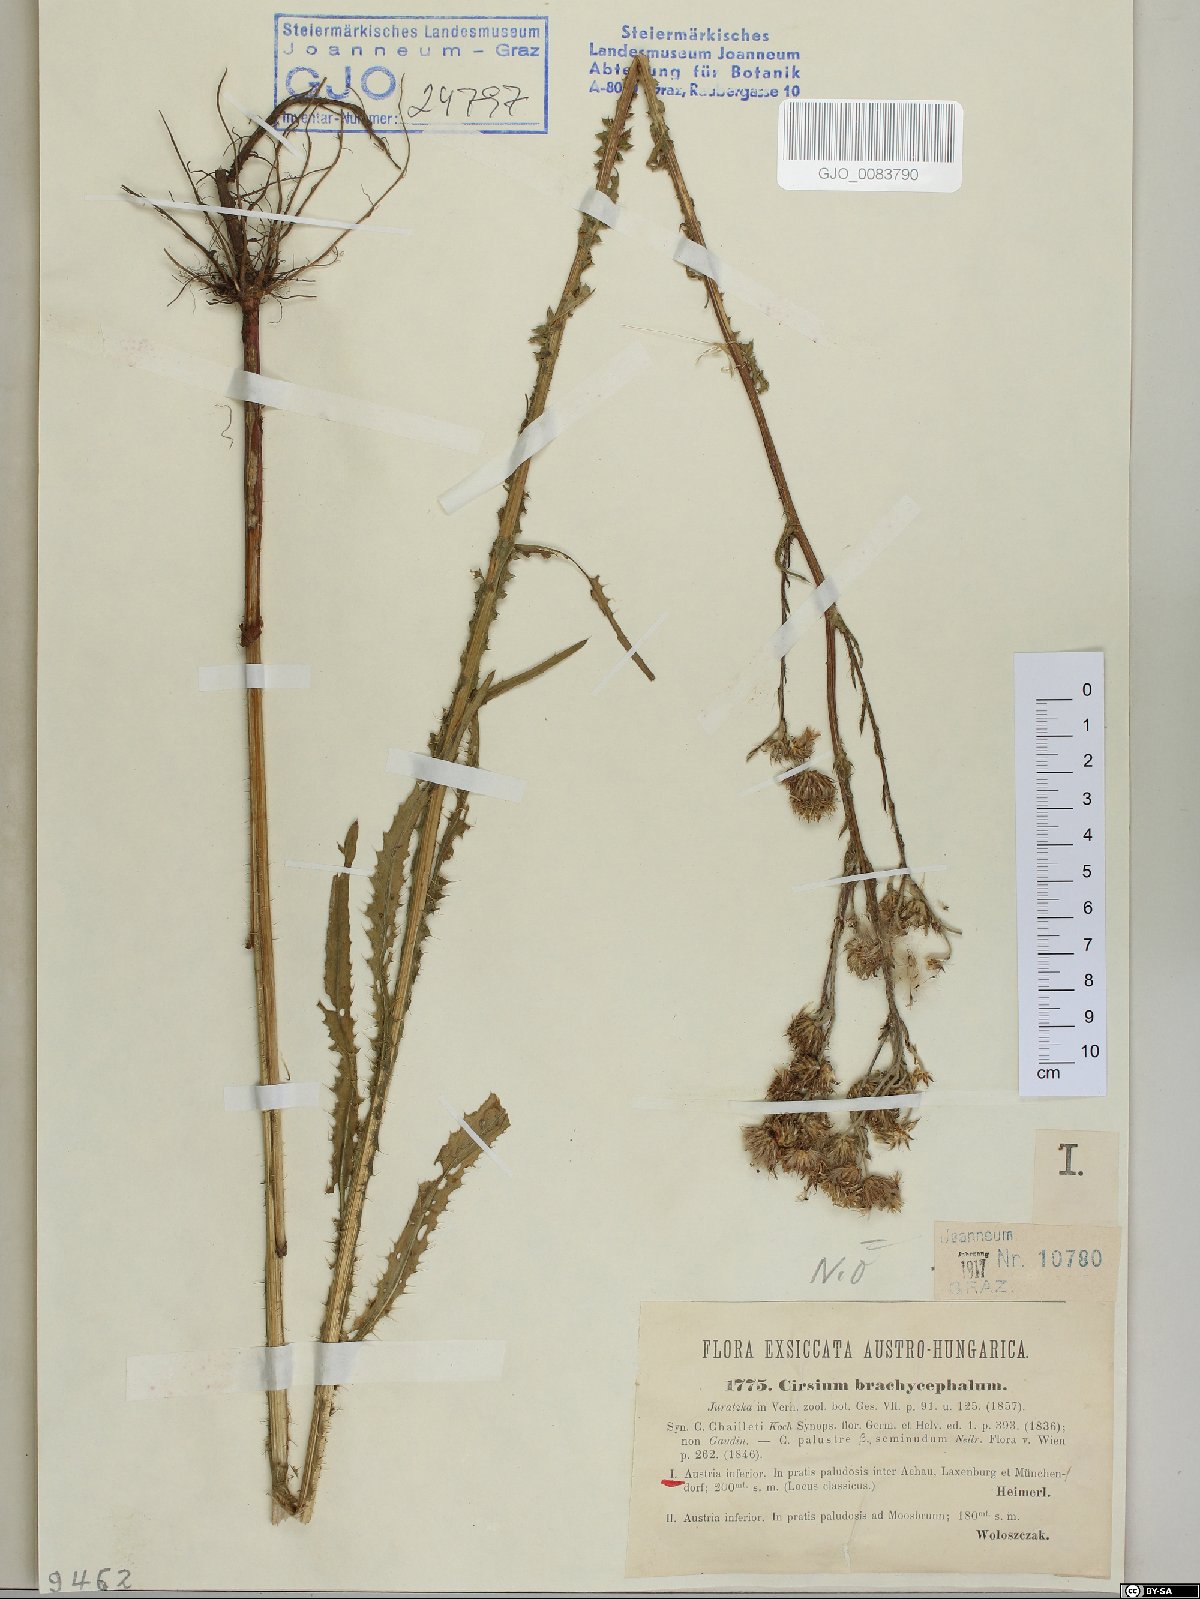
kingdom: Plantae
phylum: Tracheophyta
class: Magnoliopsida
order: Asterales
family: Asteraceae
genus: Cirsium
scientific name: Cirsium brachycephalum
